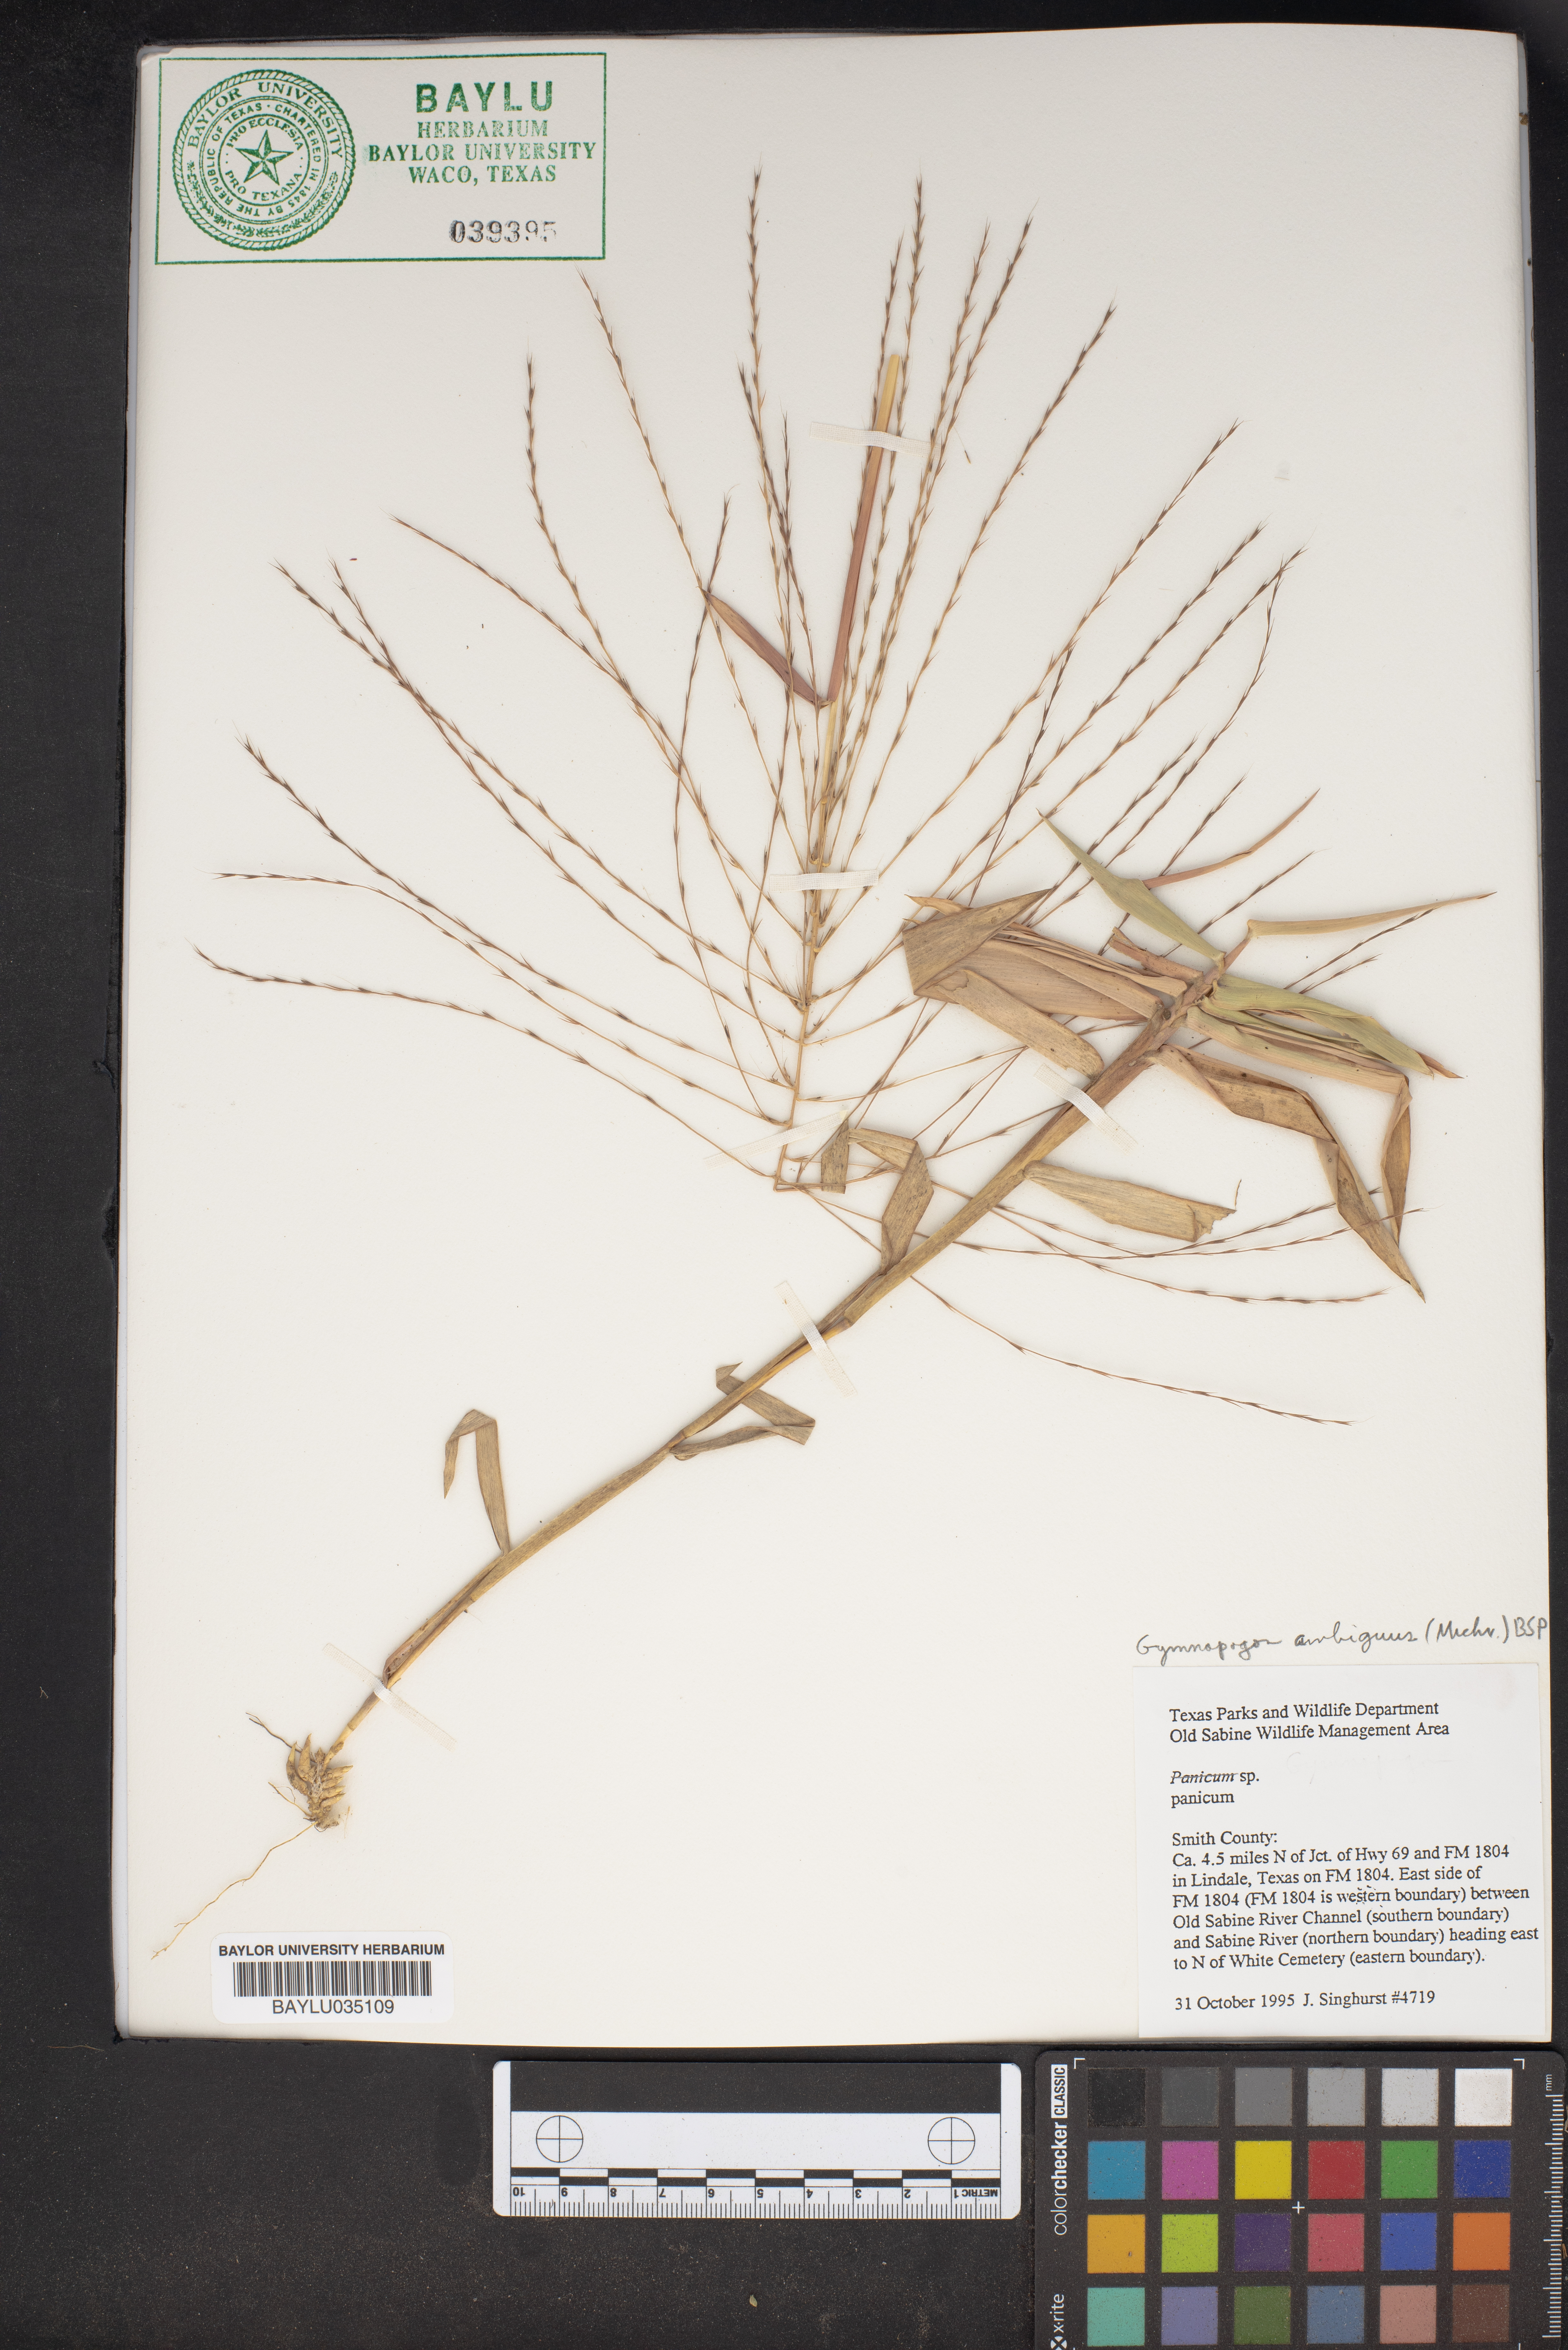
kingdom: Plantae
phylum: Tracheophyta
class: Liliopsida
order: Poales
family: Poaceae
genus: Panicum
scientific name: Panicum
